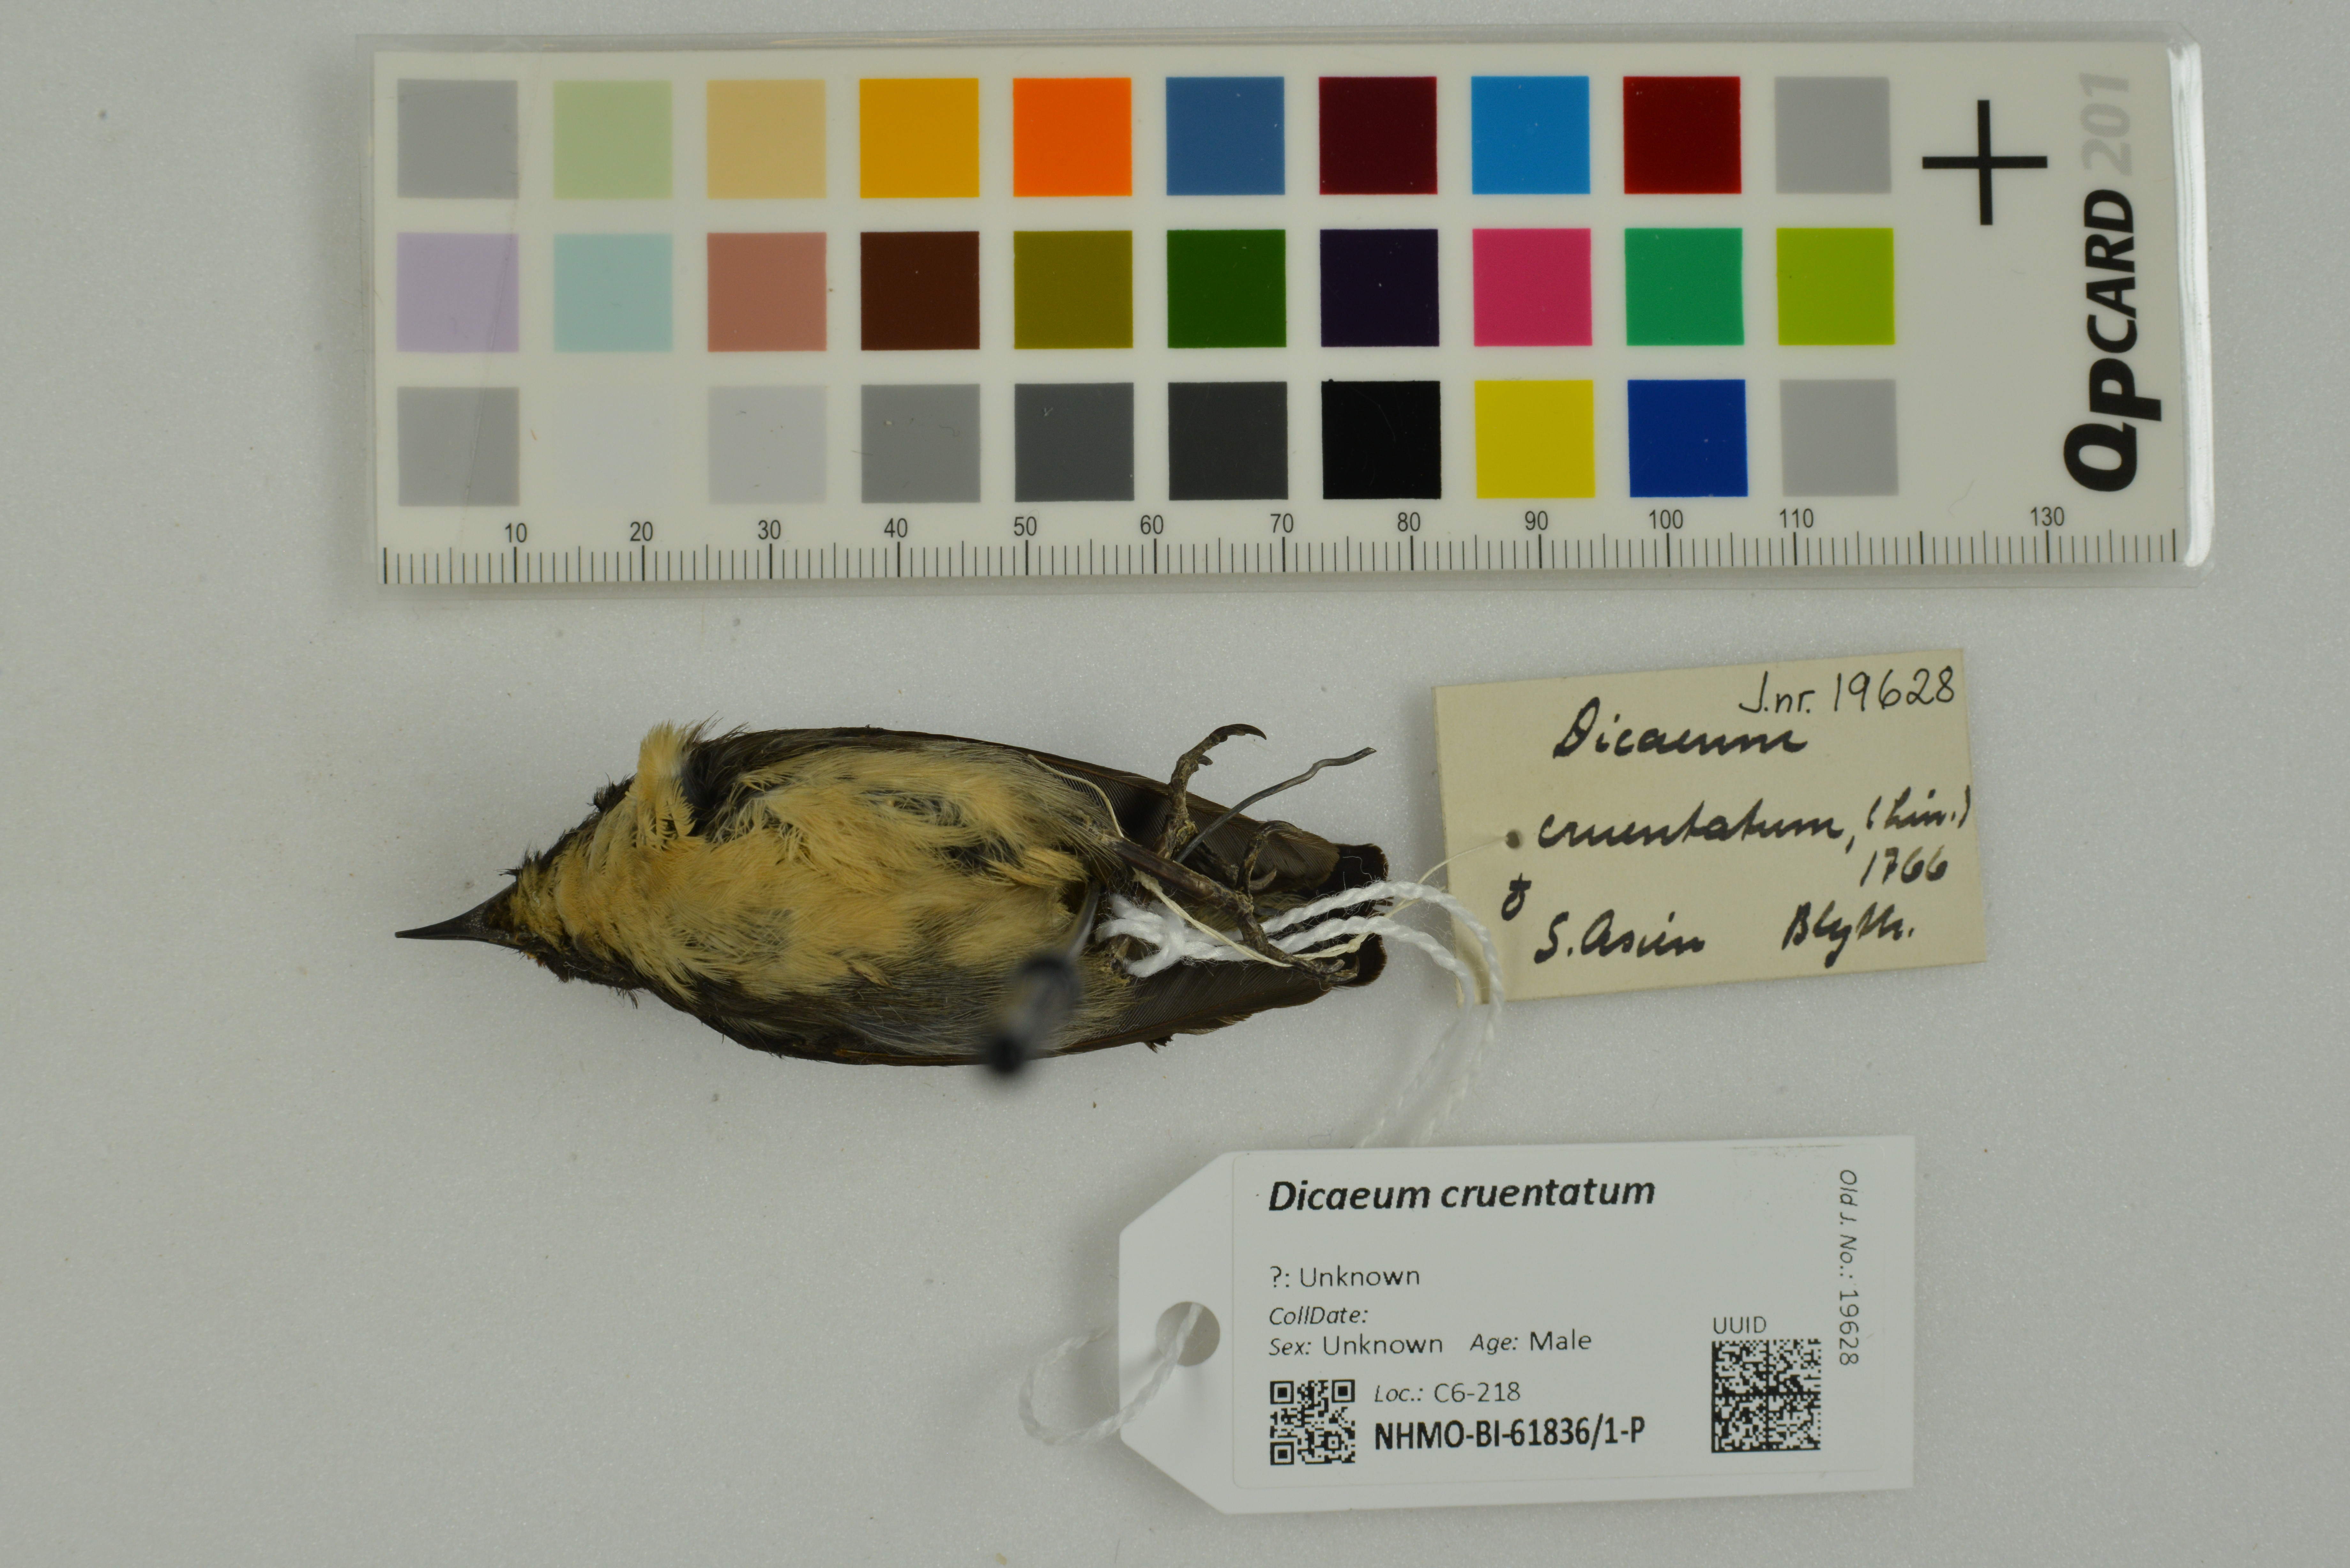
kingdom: Animalia
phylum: Chordata
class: Aves
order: Passeriformes
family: Dicaeidae
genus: Dicaeum
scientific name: Dicaeum cruentatum
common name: Scarlet-backed flowerpecker
